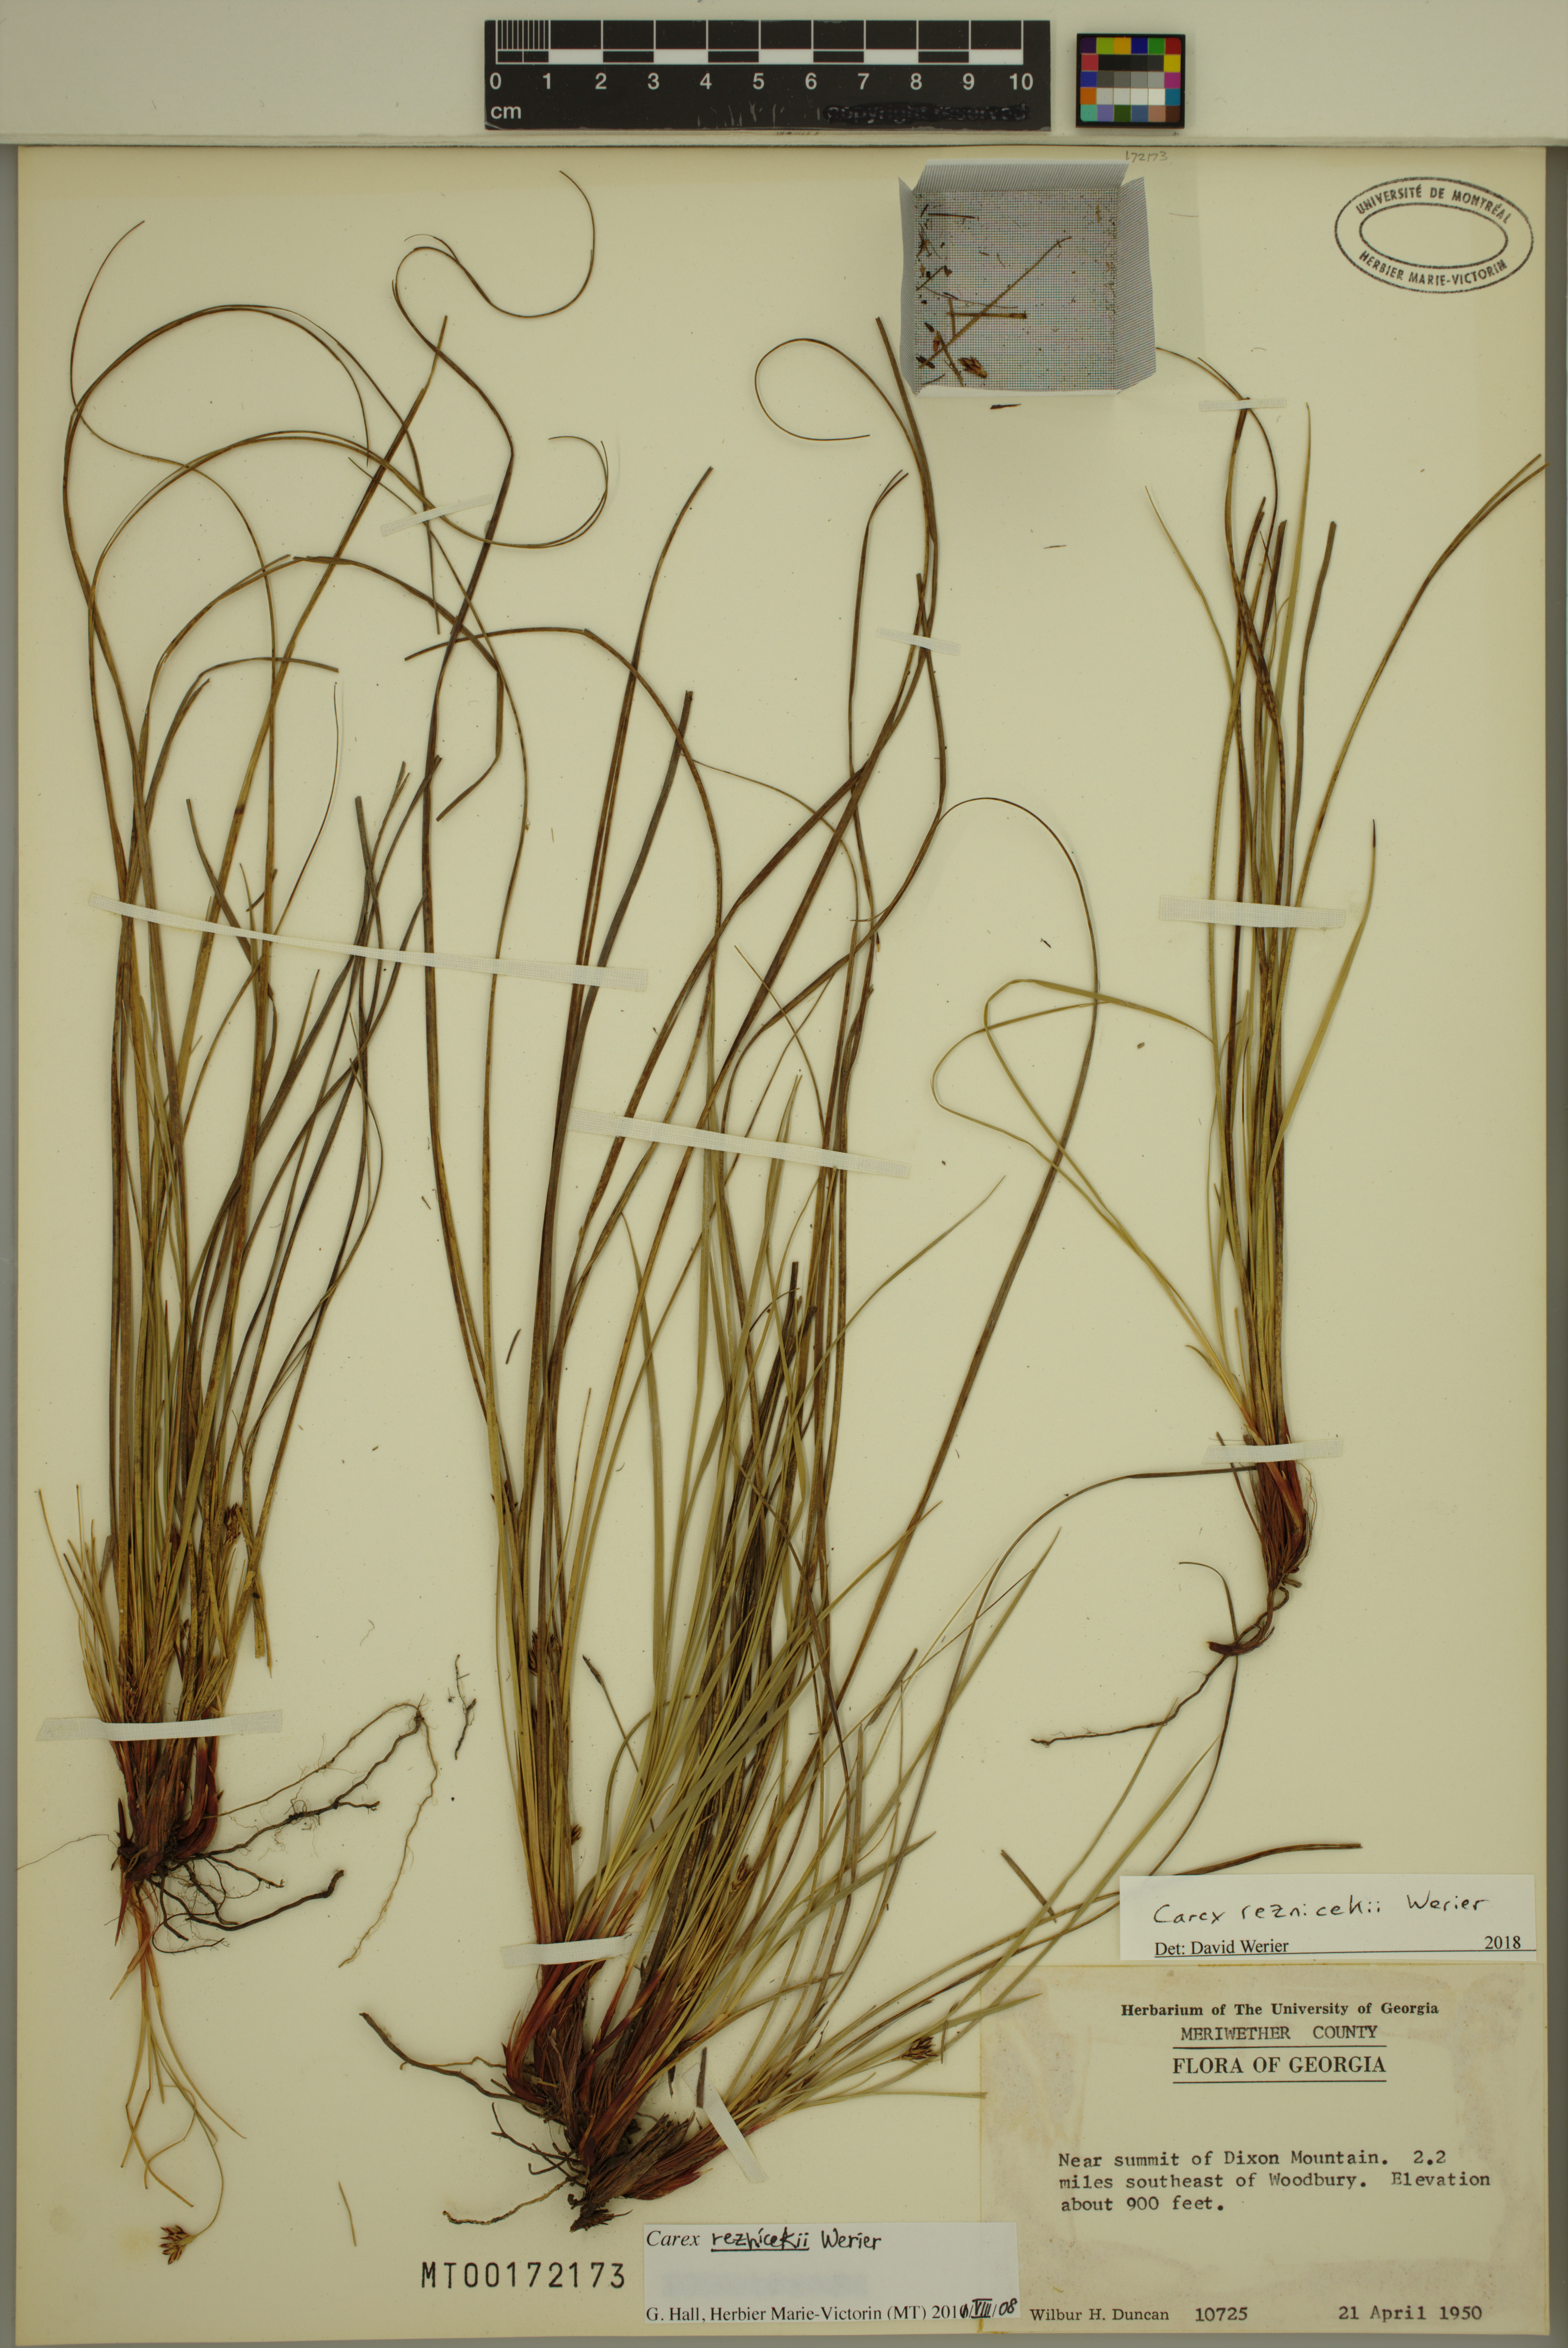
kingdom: Plantae
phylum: Tracheophyta
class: Liliopsida
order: Poales
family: Cyperaceae
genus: Carex
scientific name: Carex reznicekii
